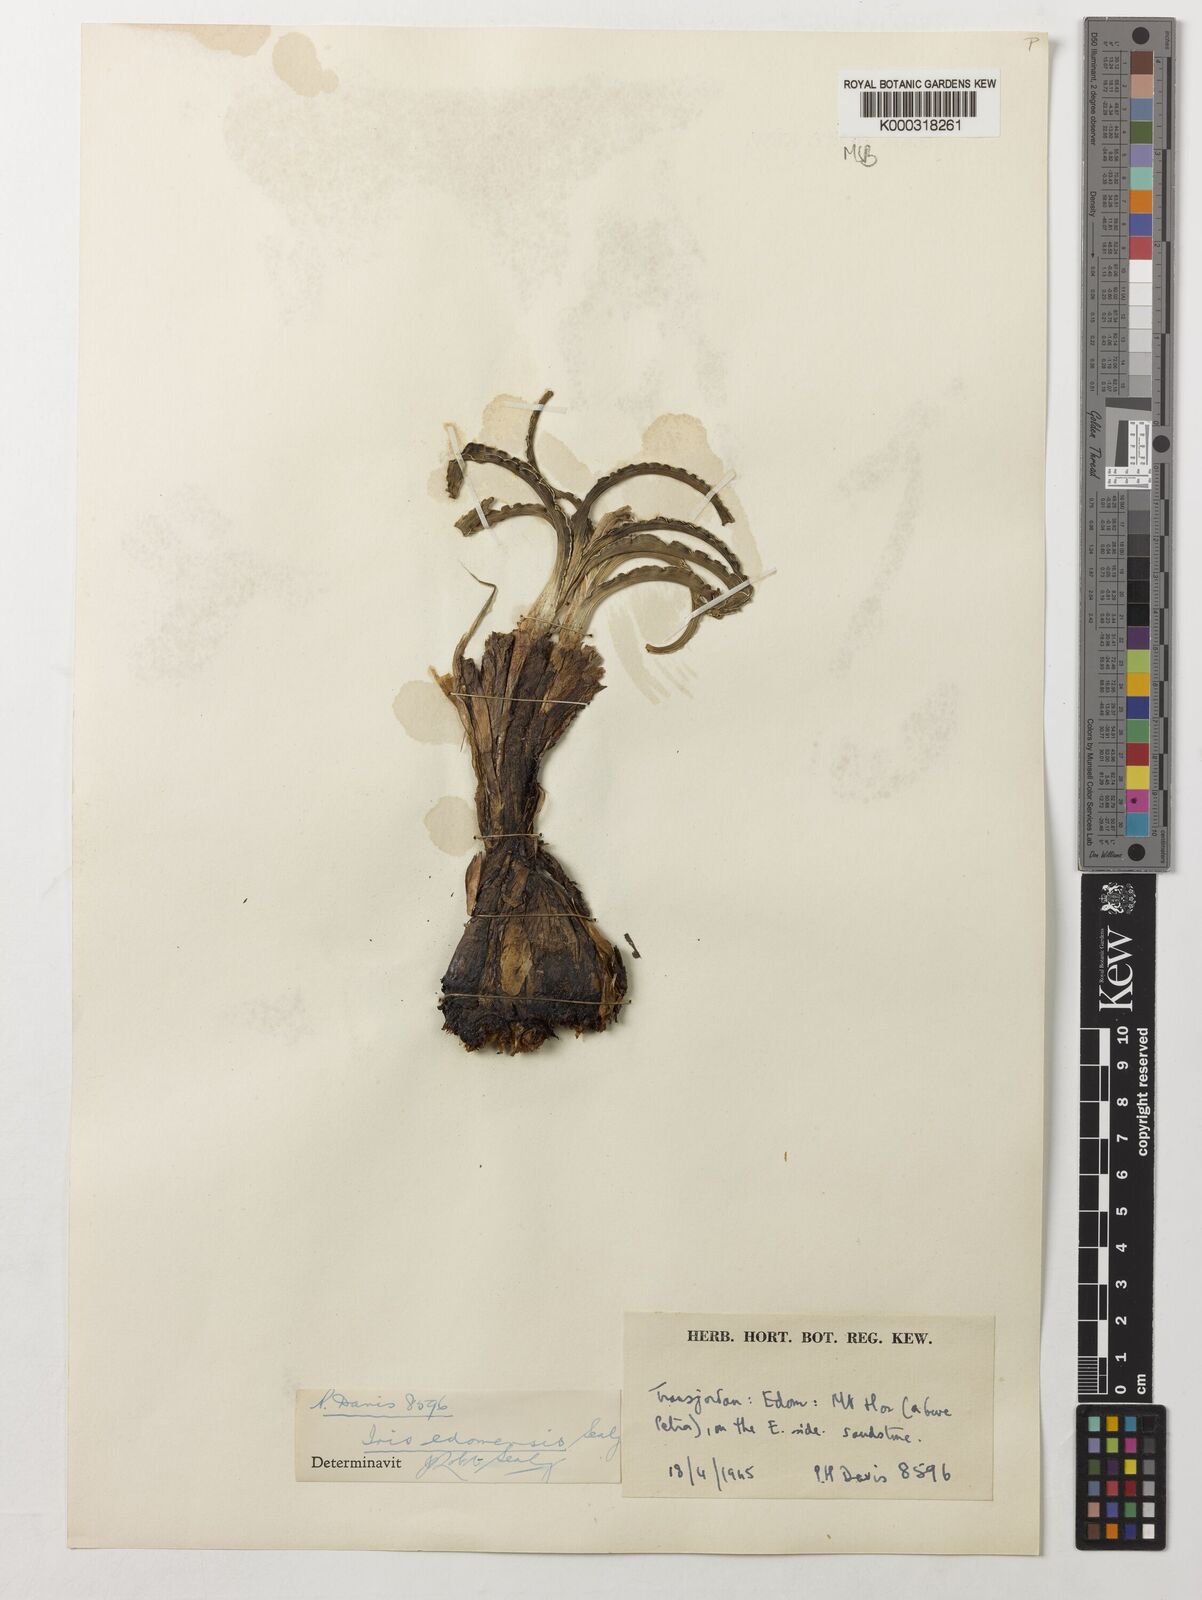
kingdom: Plantae
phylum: Tracheophyta
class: Liliopsida
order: Asparagales
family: Iridaceae
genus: Iris
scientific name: Iris edomensis
